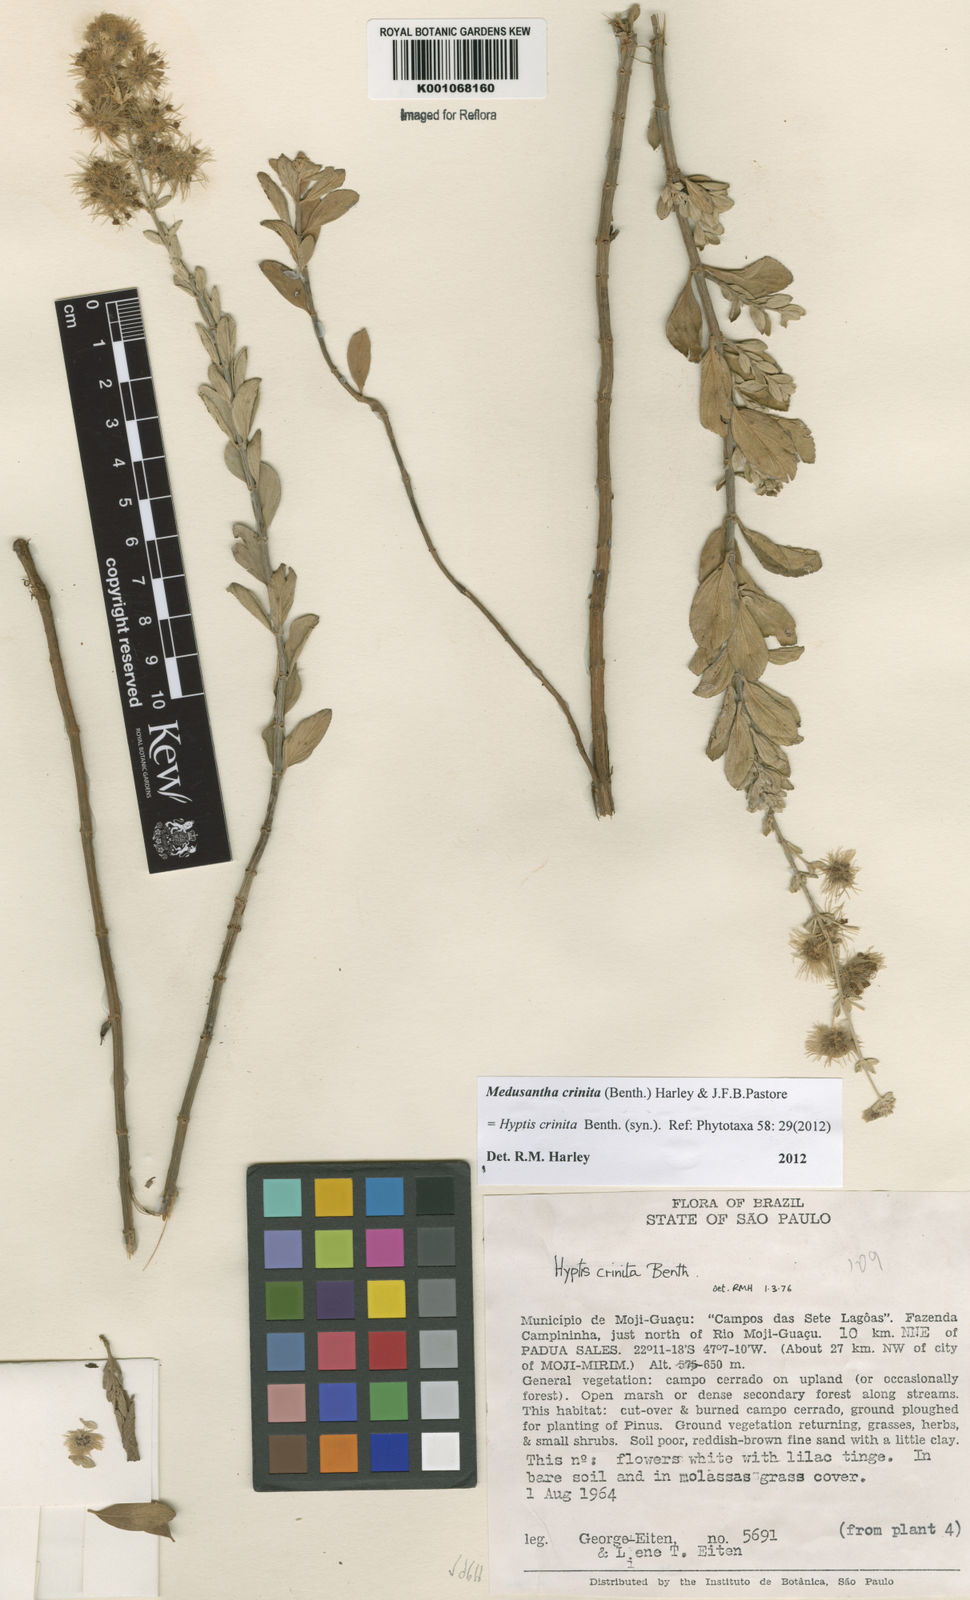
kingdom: Plantae
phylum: Tracheophyta
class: Magnoliopsida
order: Lamiales
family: Lamiaceae
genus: Medusantha
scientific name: Medusantha crinita
